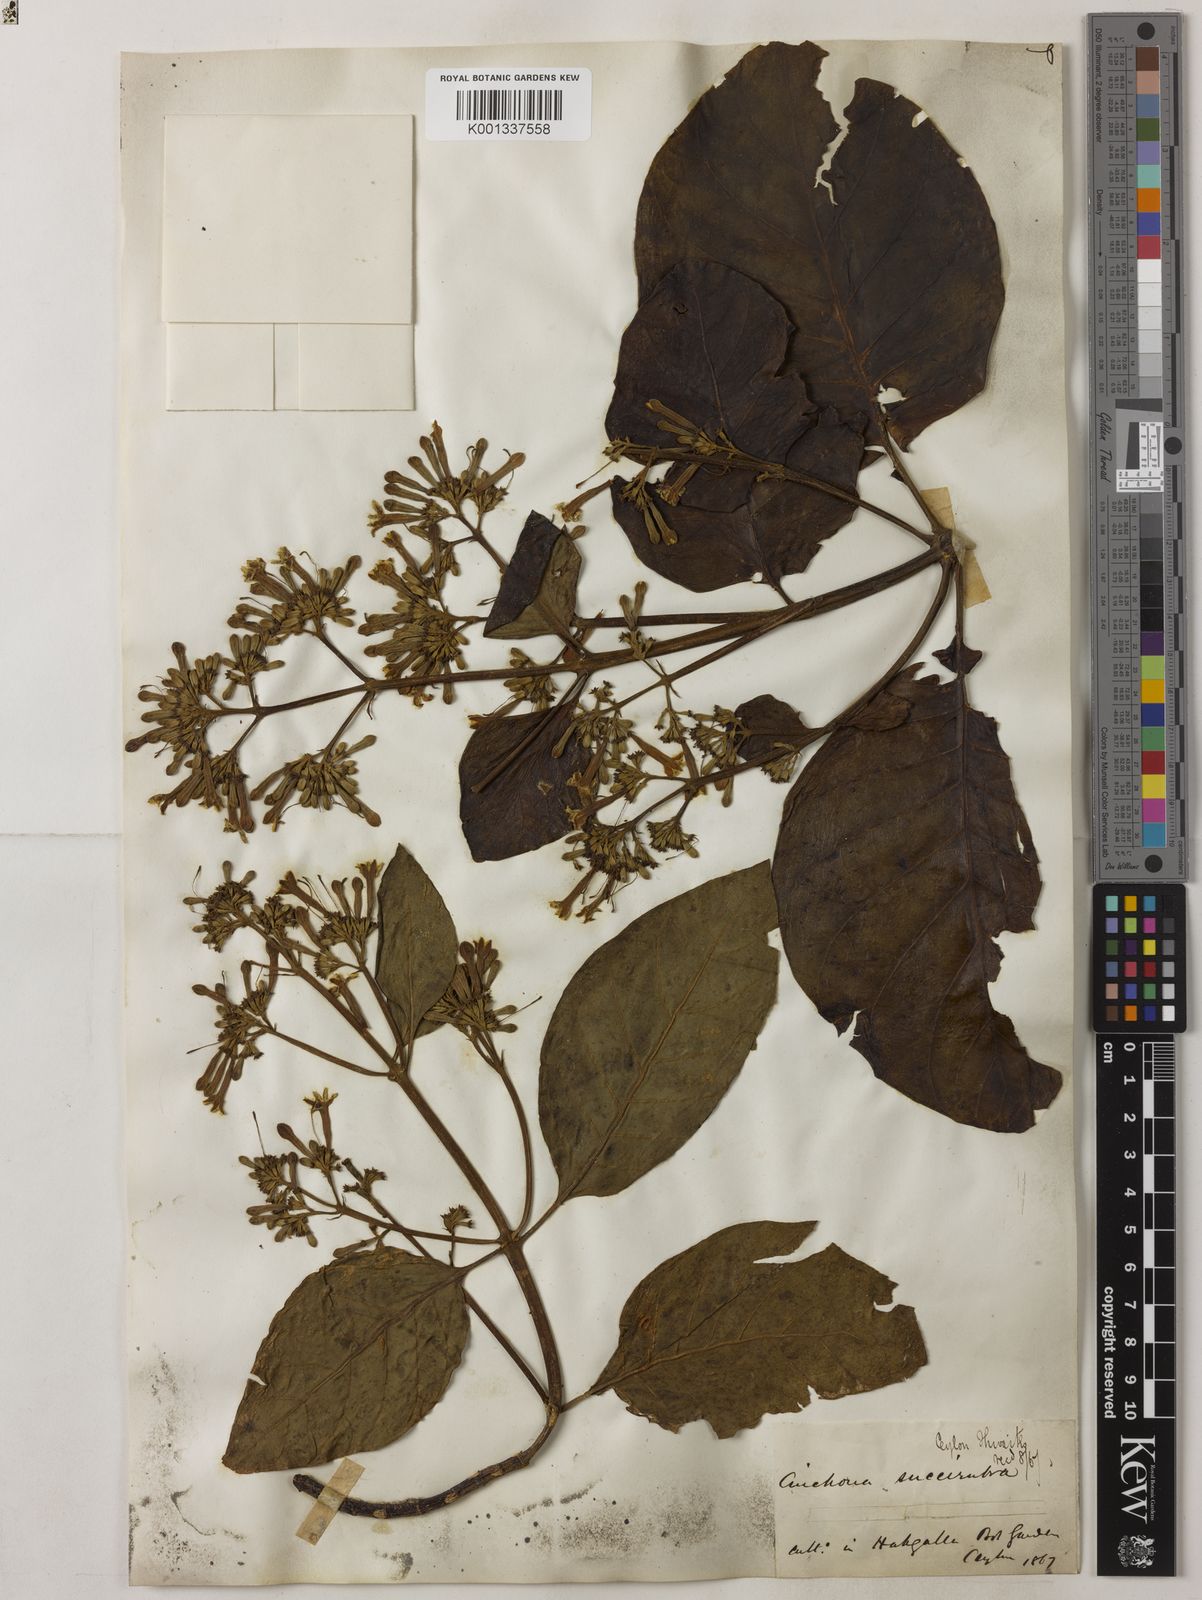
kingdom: Plantae
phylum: Tracheophyta
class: Magnoliopsida
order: Gentianales
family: Rubiaceae
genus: Cinchona
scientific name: Cinchona pubescens
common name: Quinine
